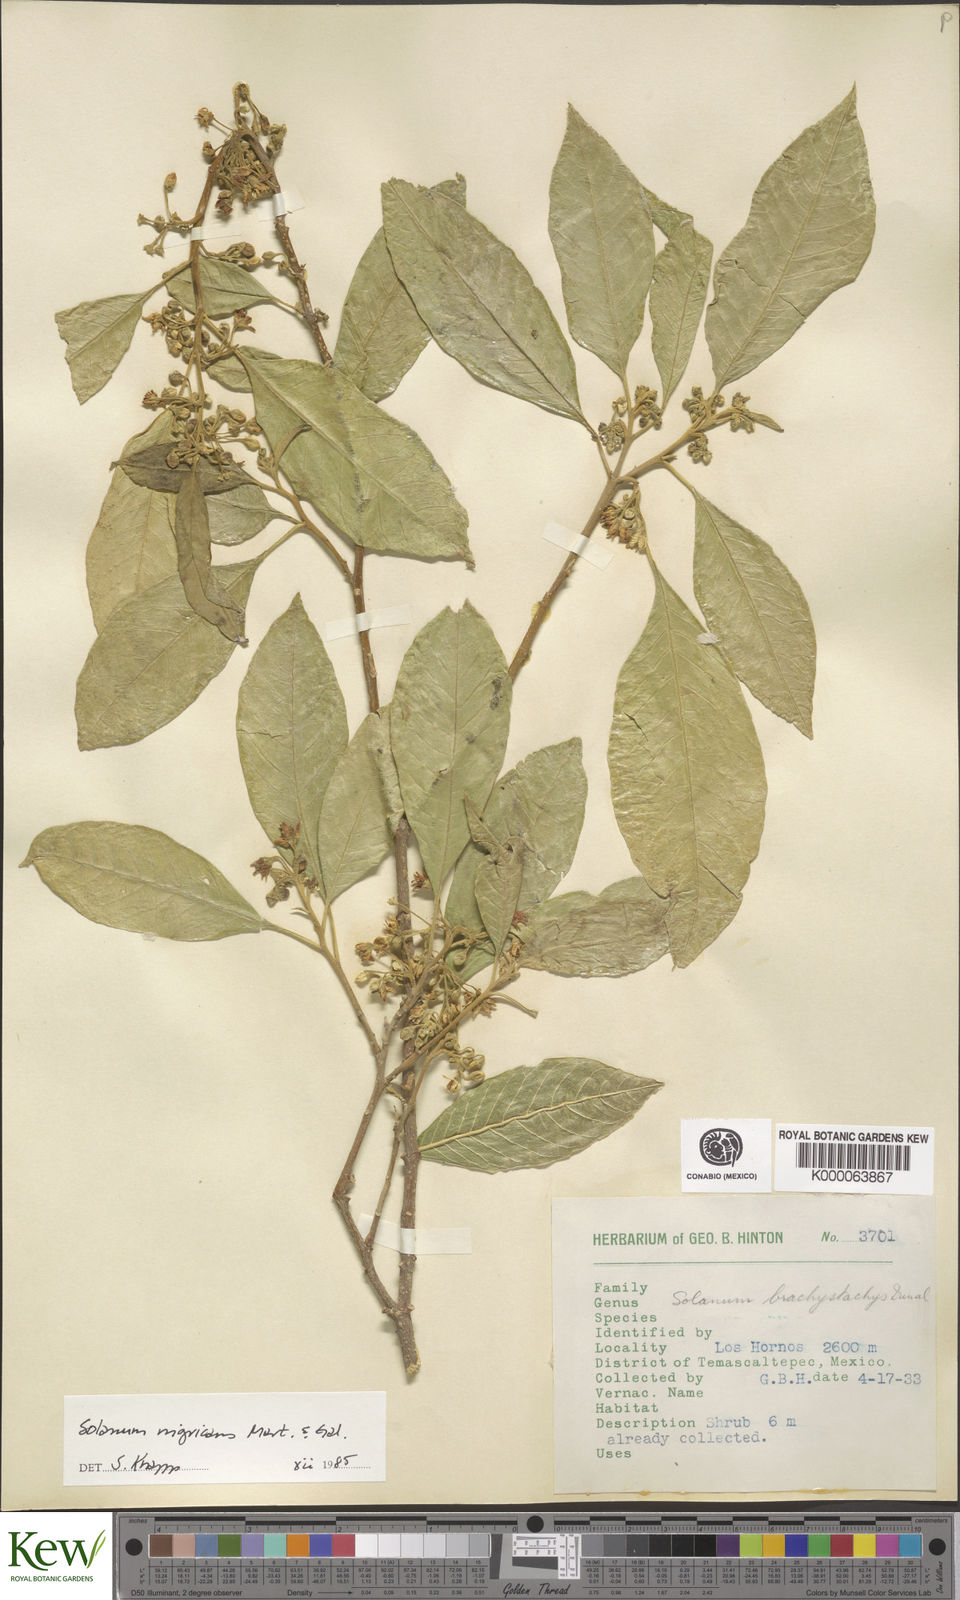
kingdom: Plantae
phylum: Tracheophyta
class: Magnoliopsida
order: Solanales
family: Solanaceae
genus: Solanum
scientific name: Solanum nigricans
